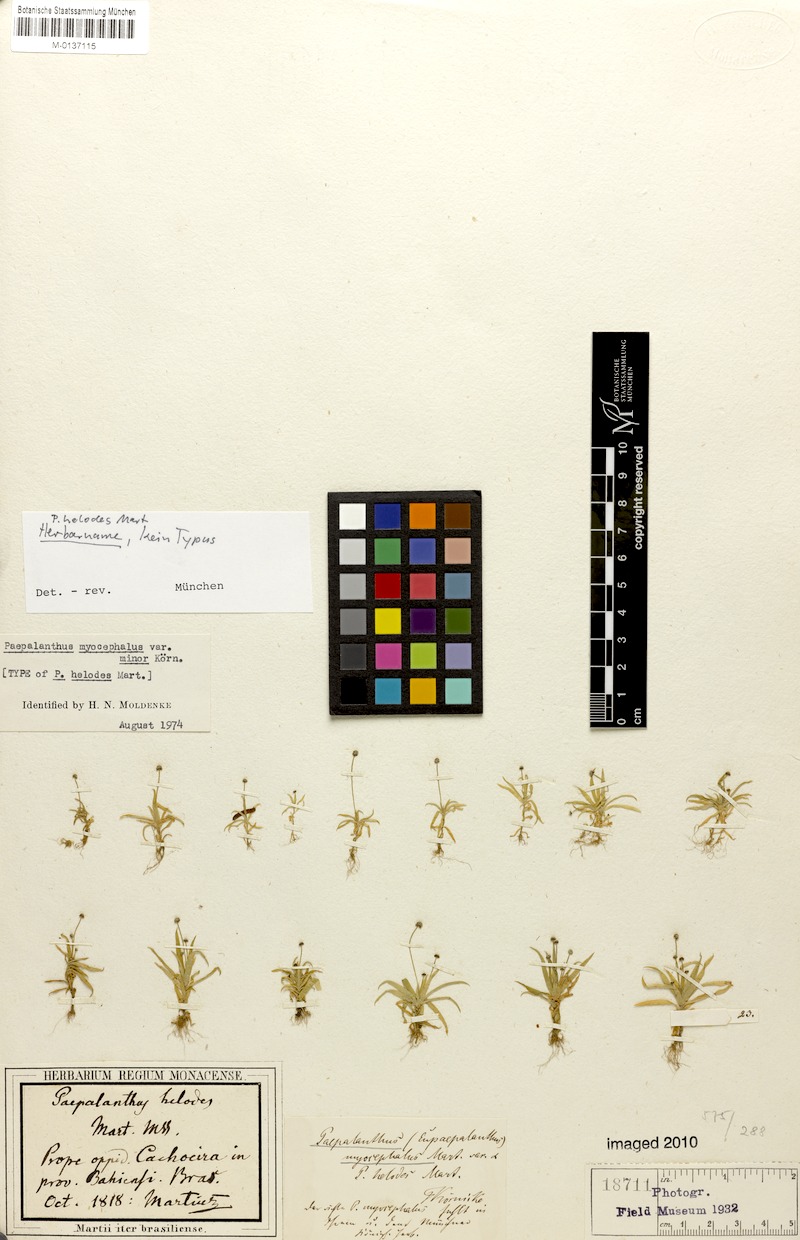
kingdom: Plantae
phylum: Tracheophyta
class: Liliopsida
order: Poales
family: Eriocaulaceae
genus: Paepalanthus
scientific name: Paepalanthus myocephalon
